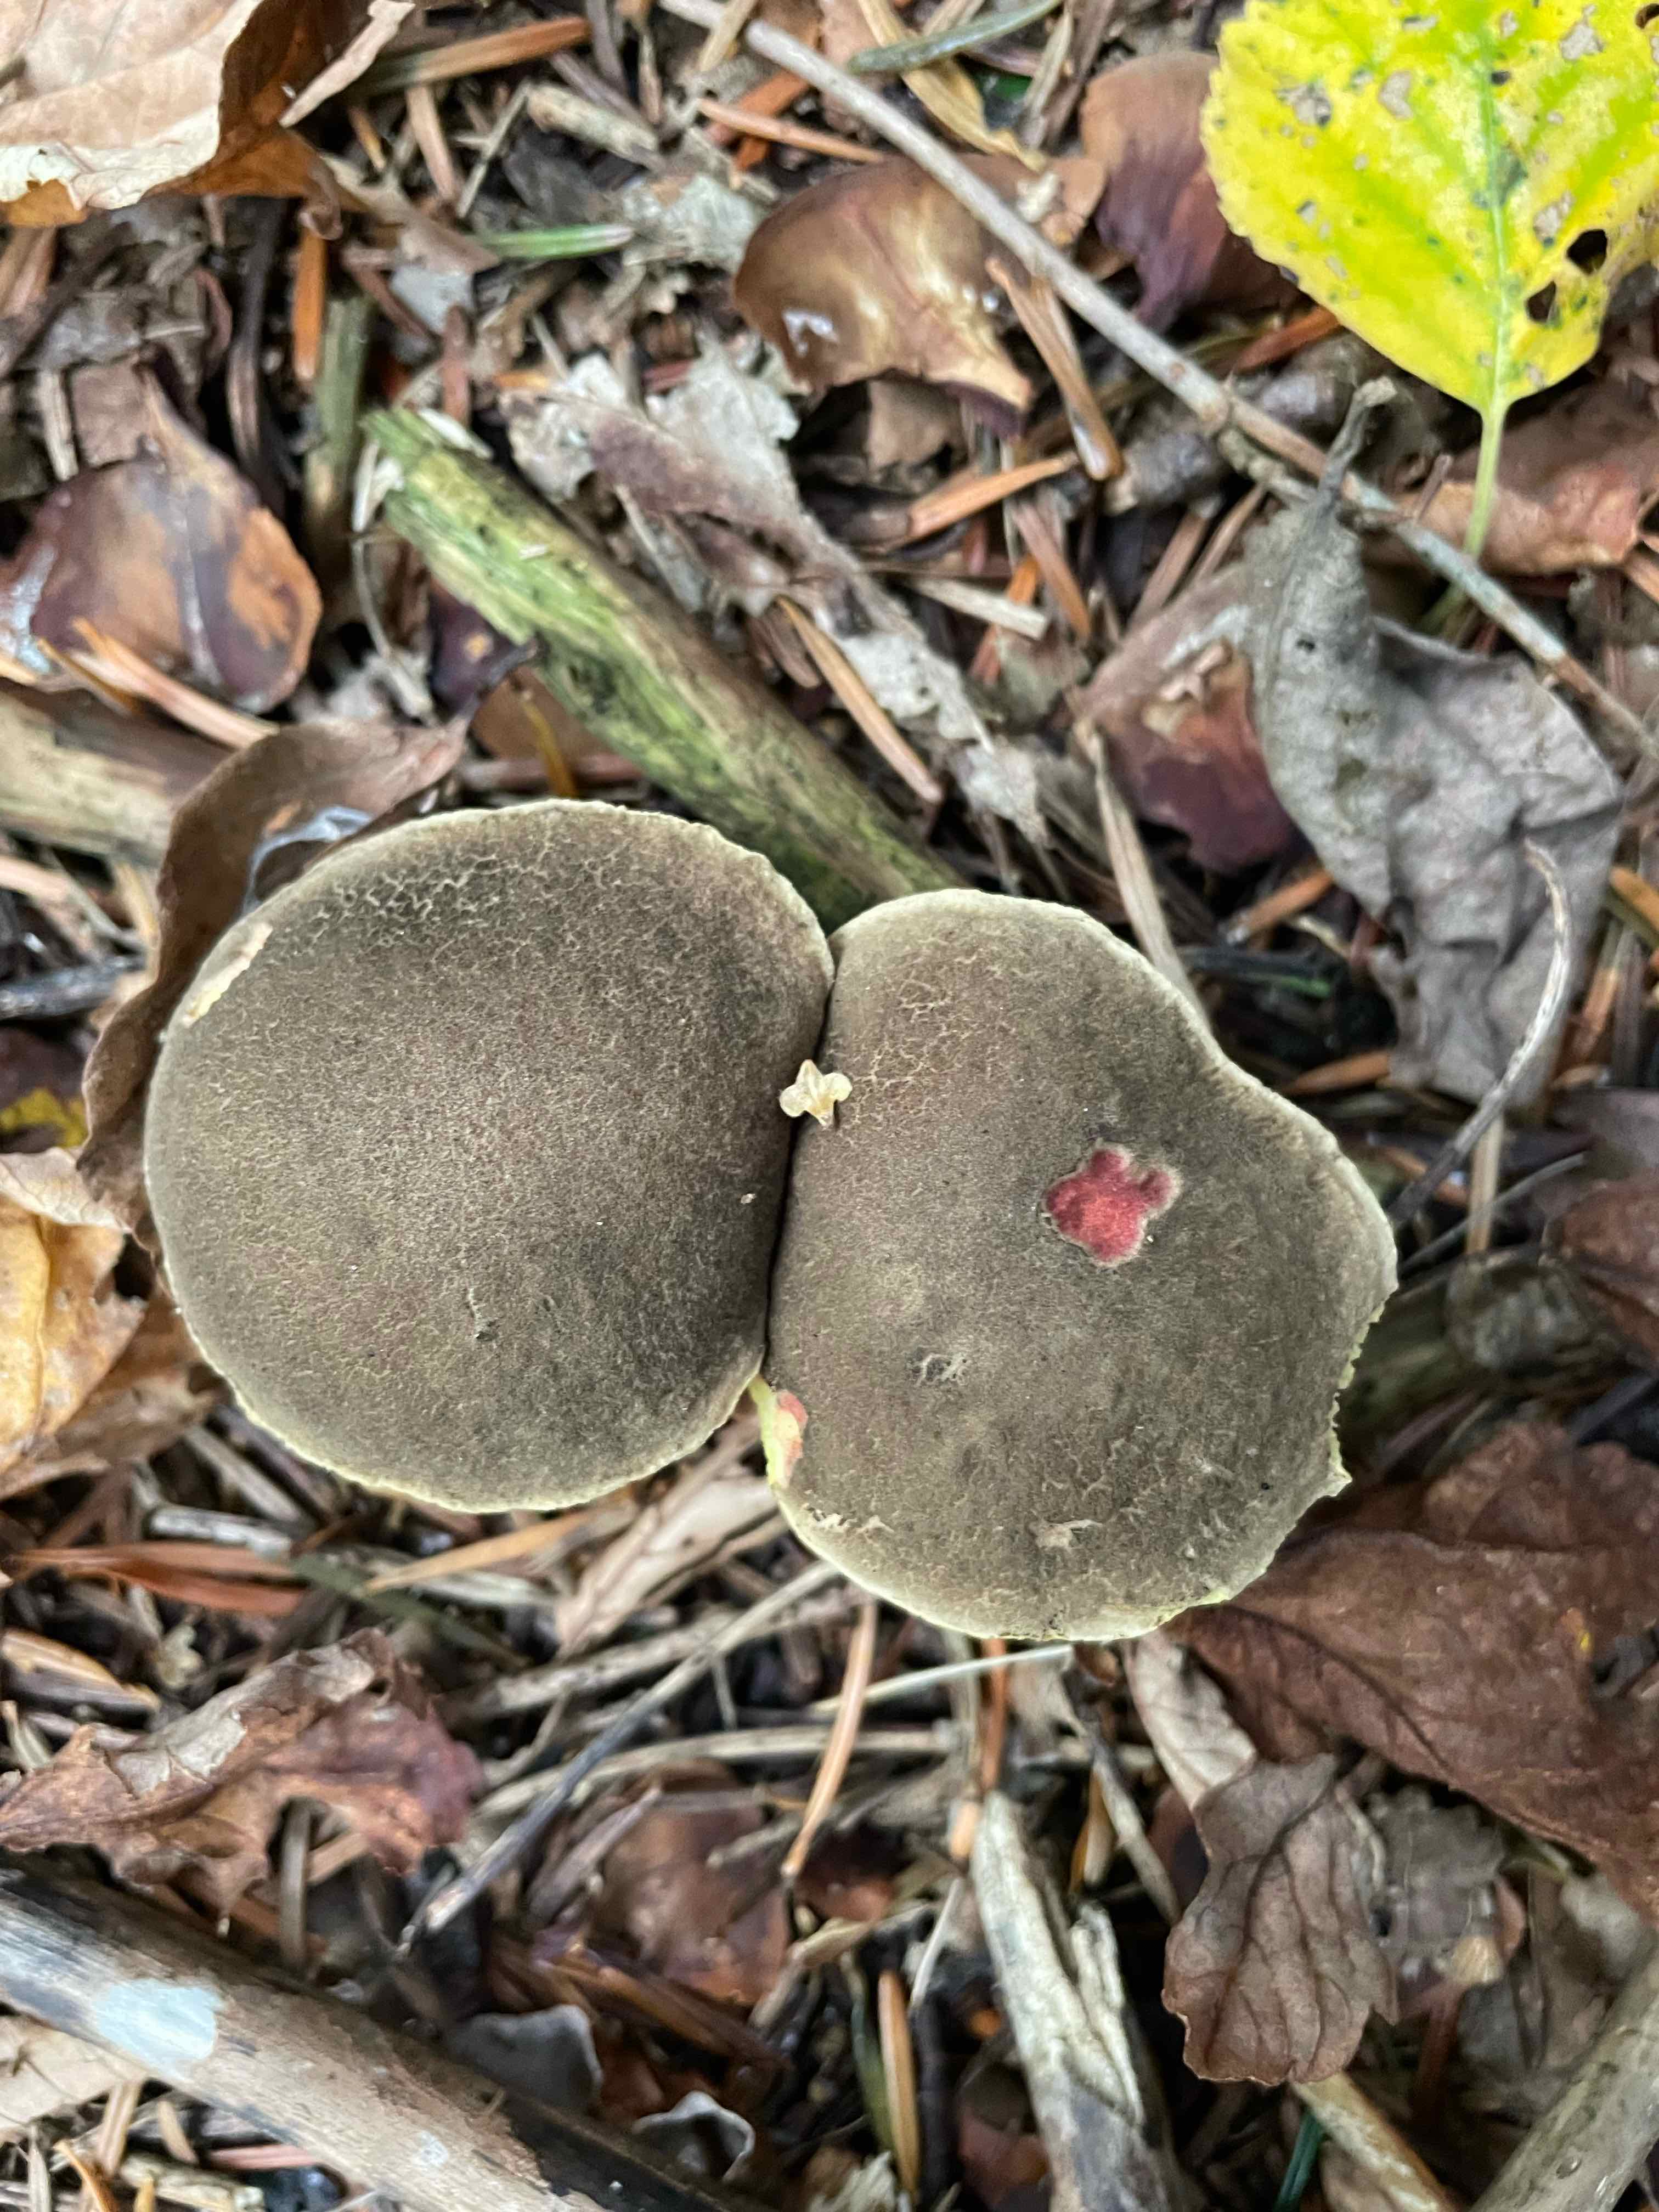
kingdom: Fungi
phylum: Basidiomycota
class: Agaricomycetes
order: Boletales
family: Boletaceae
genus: Xerocomellus
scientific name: Xerocomellus chrysenteron
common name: rødsprukken rørhat
